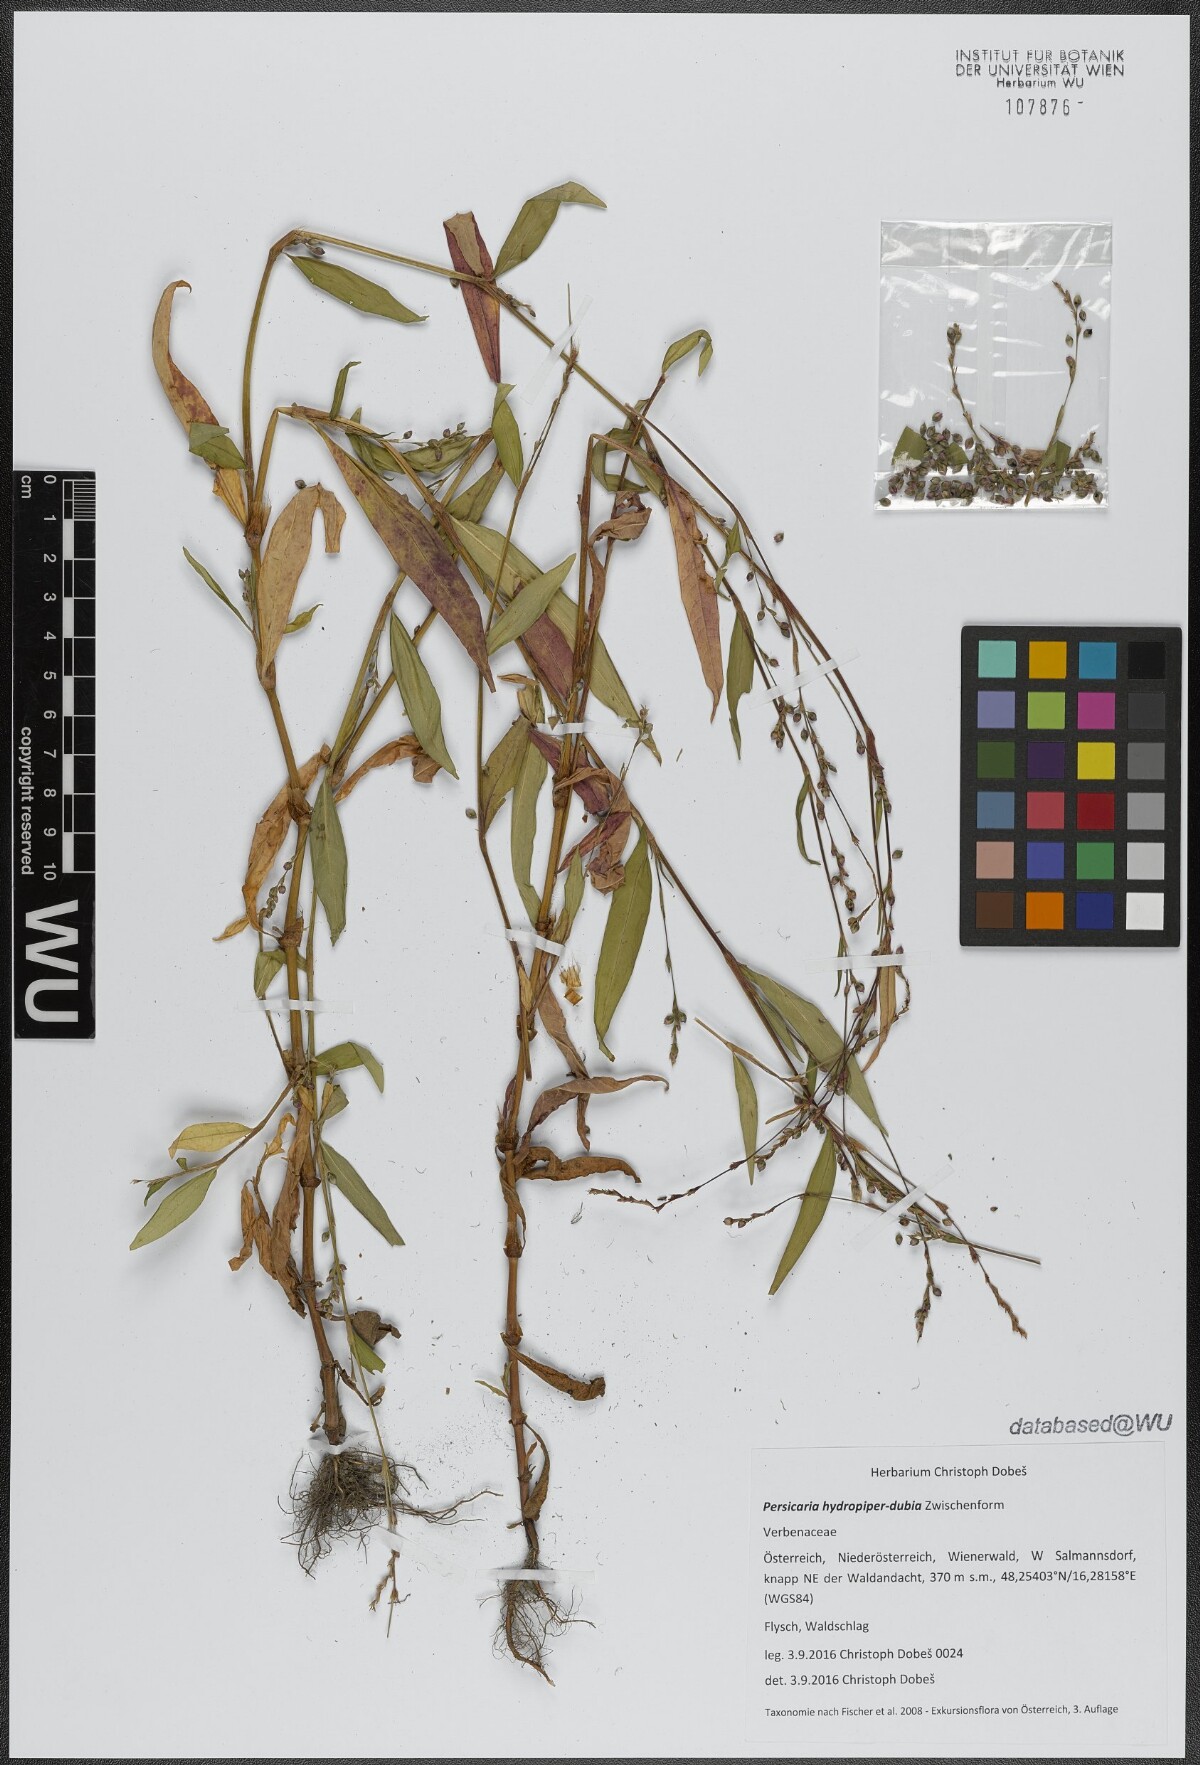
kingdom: Plantae
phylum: Tracheophyta
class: Magnoliopsida
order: Caryophyllales
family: Polygonaceae
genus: Persicaria
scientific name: Persicaria hydropiper
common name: Water-pepper
